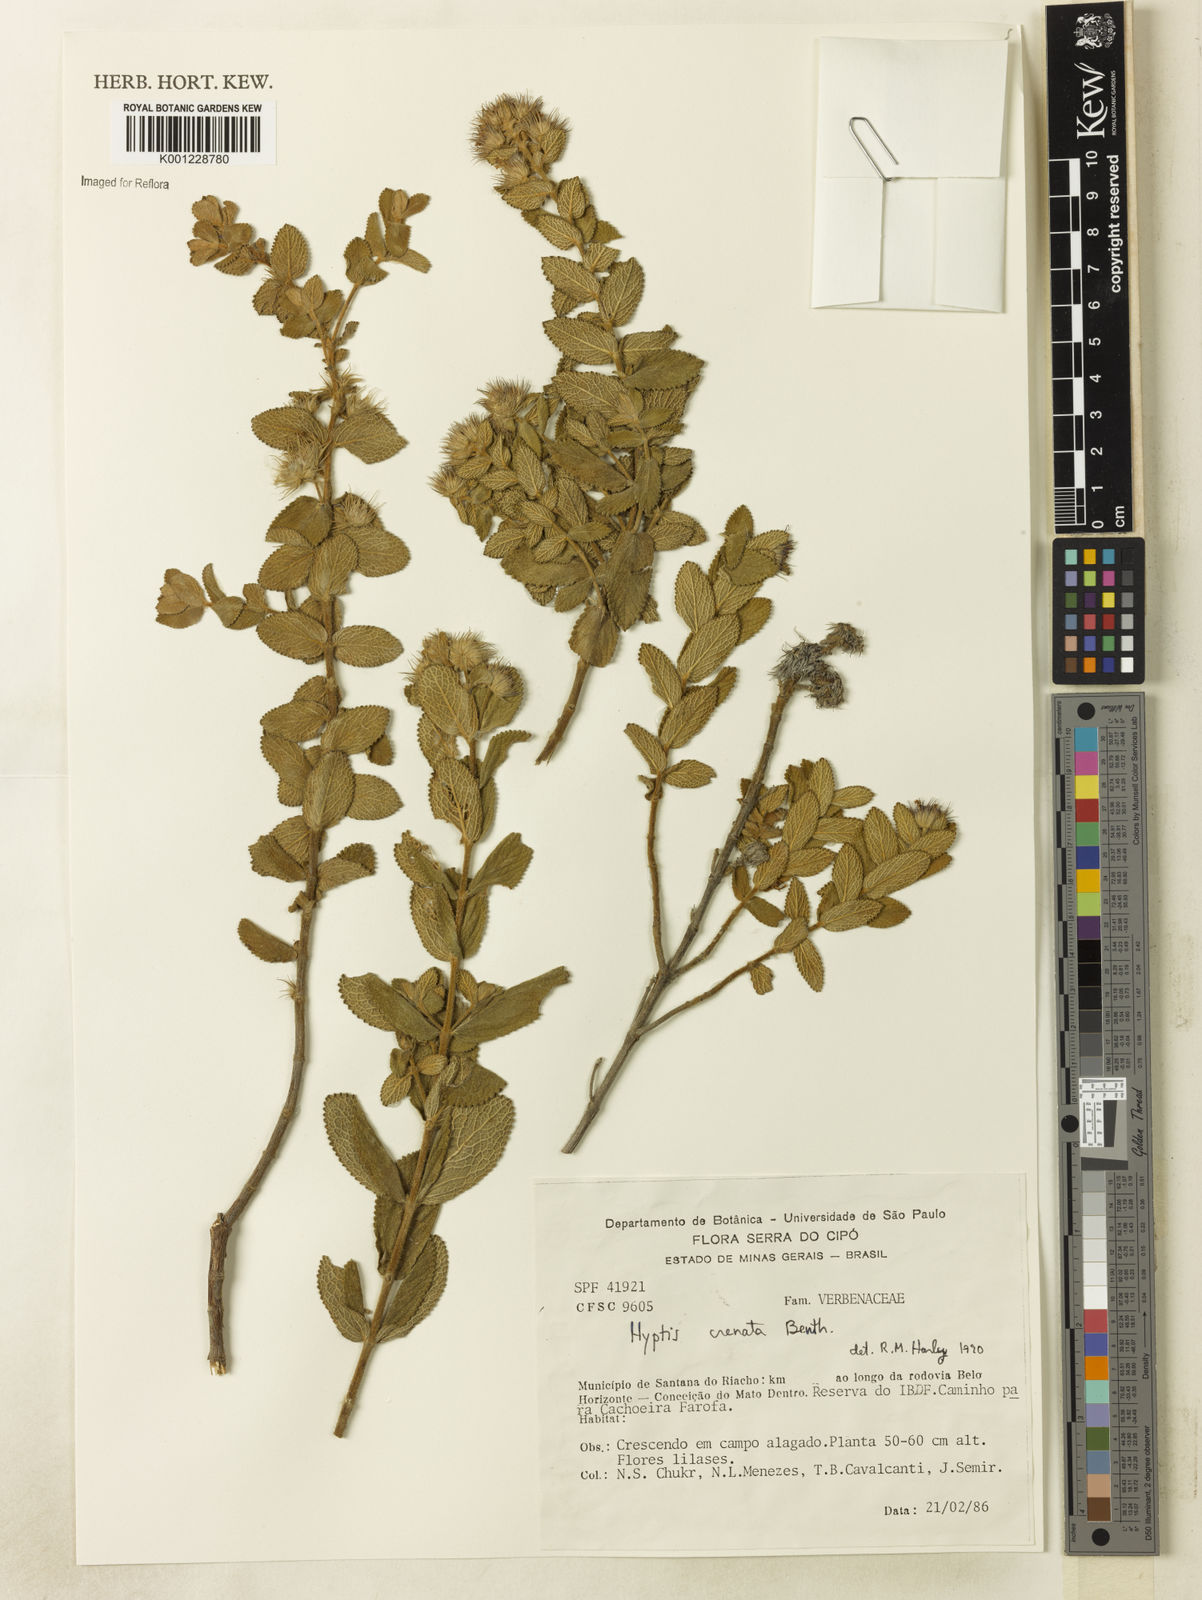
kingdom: Plantae
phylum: Tracheophyta
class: Magnoliopsida
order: Lamiales
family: Lamiaceae
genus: Hyptis
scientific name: Hyptis crenata
